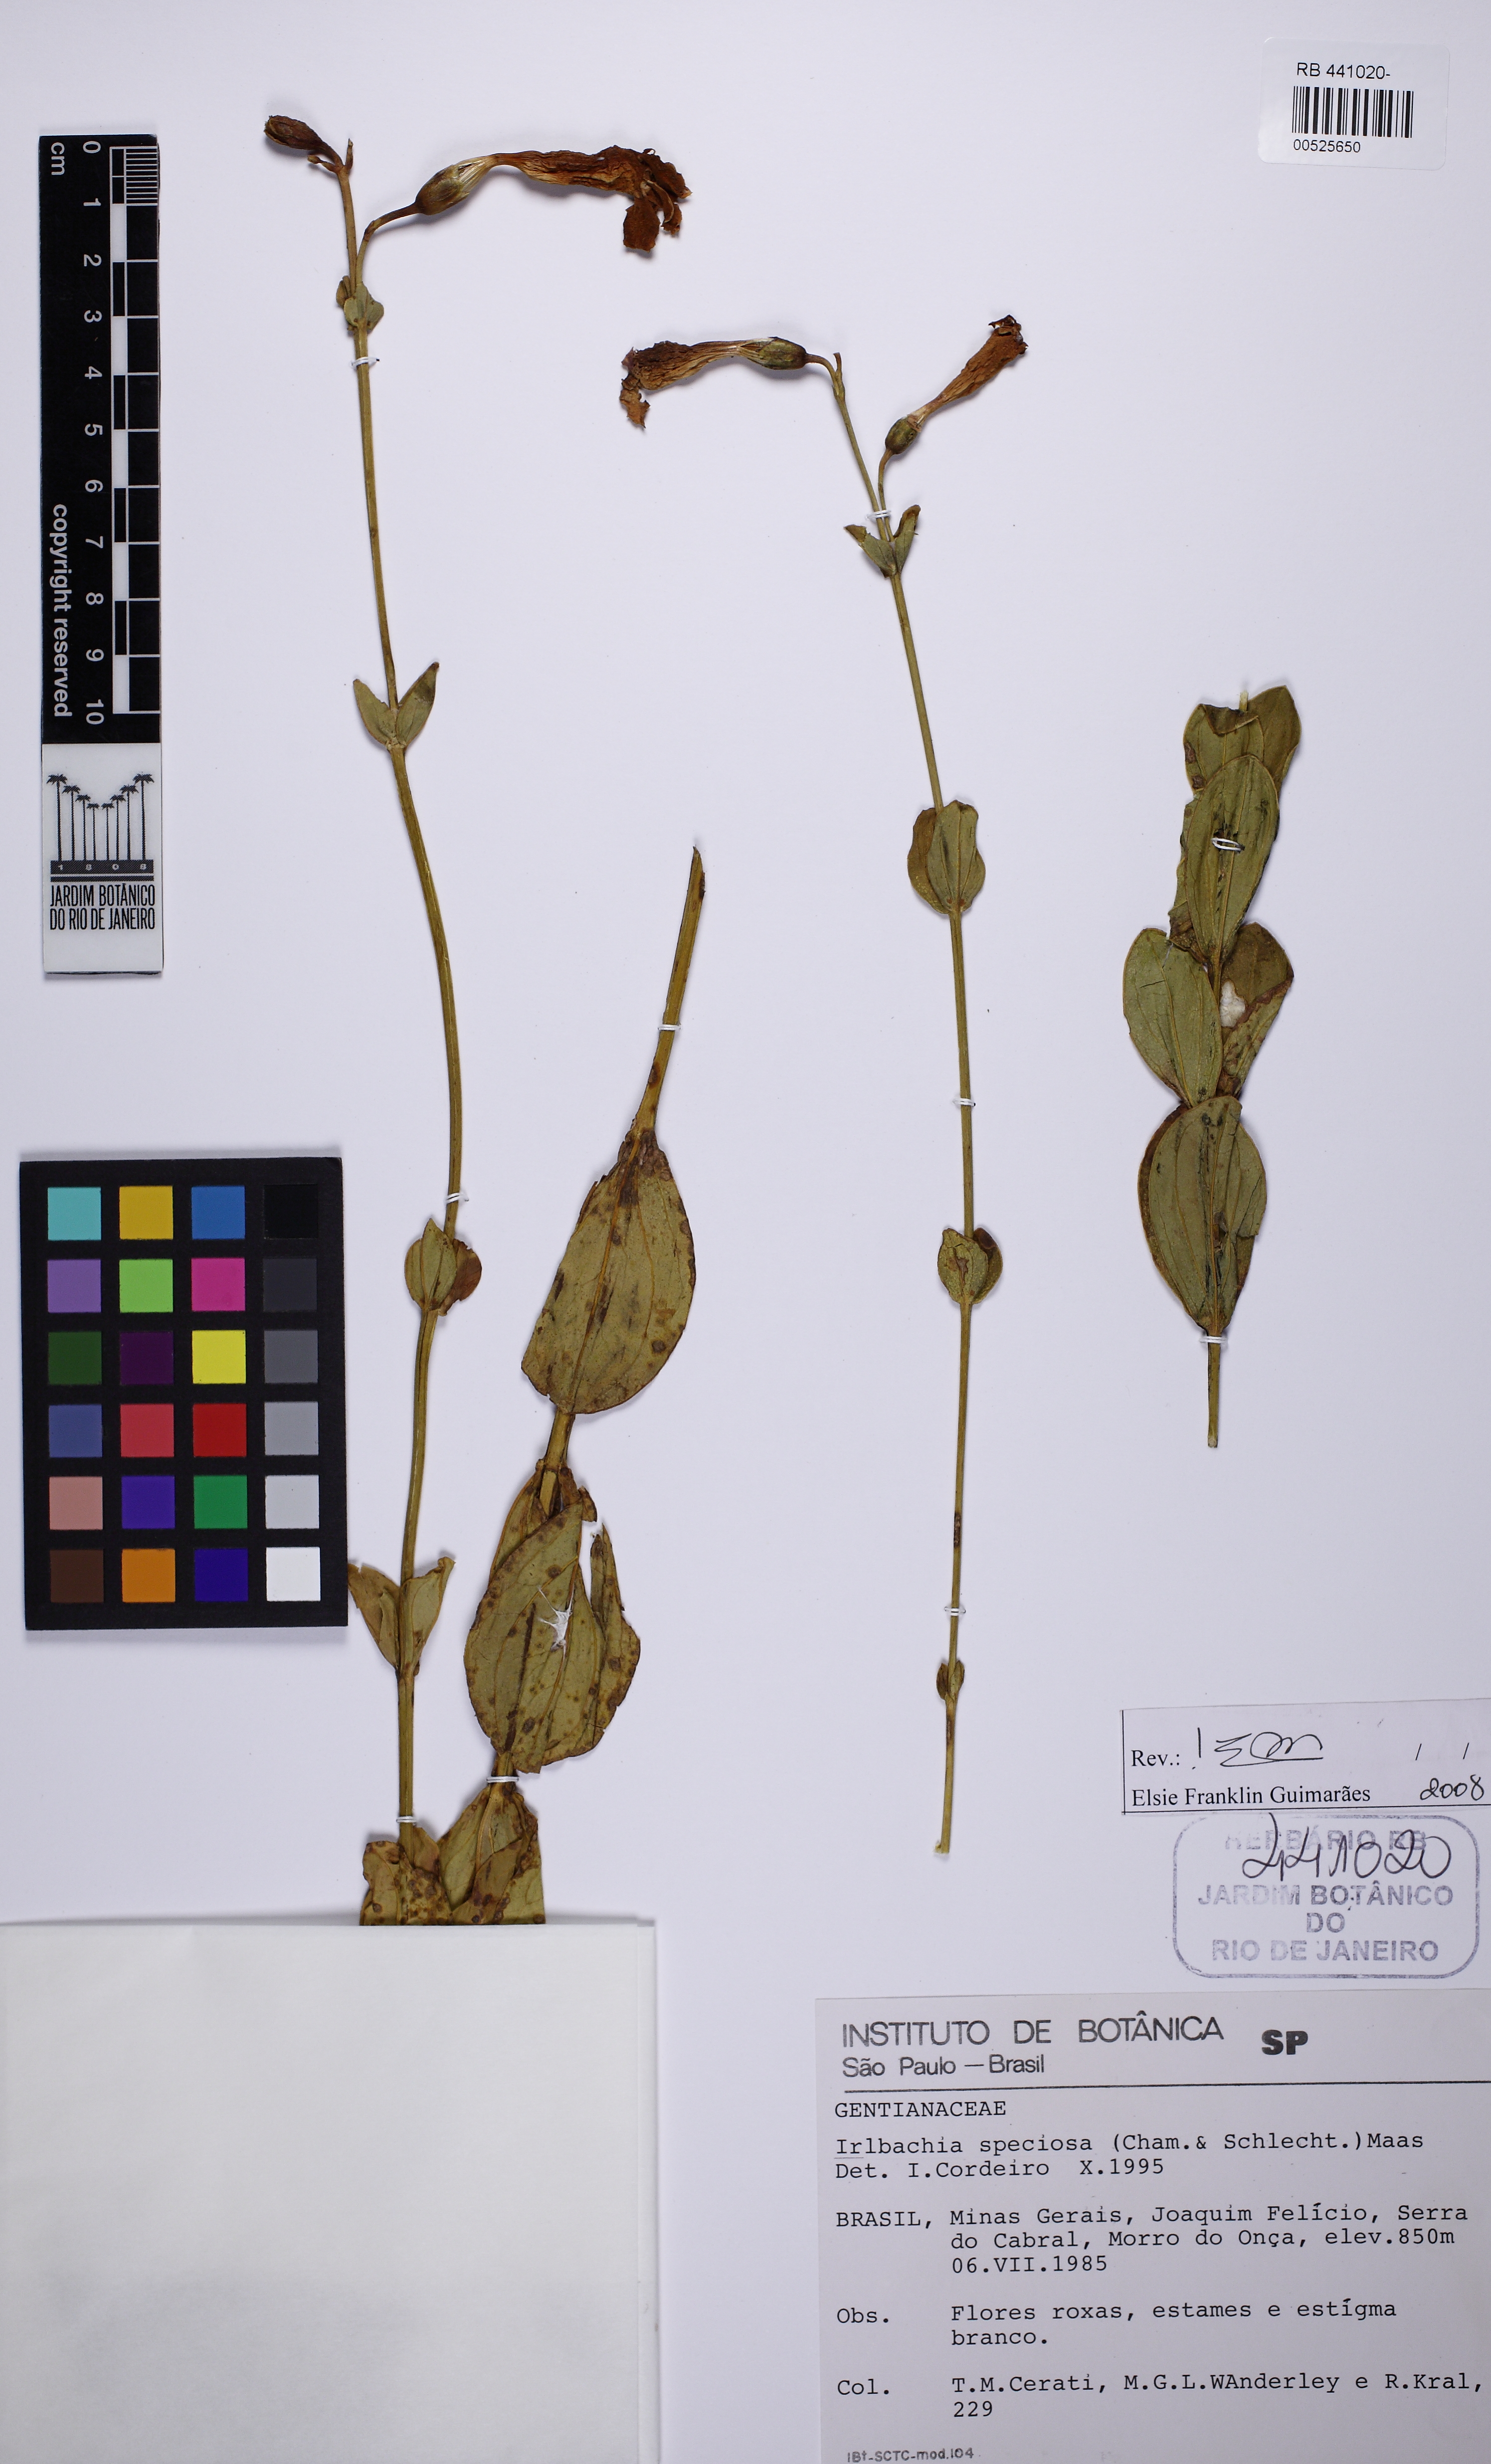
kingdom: Plantae
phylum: Tracheophyta
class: Magnoliopsida
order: Gentianales
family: Gentianaceae
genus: Calolisianthus
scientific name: Calolisianthus speciosus
